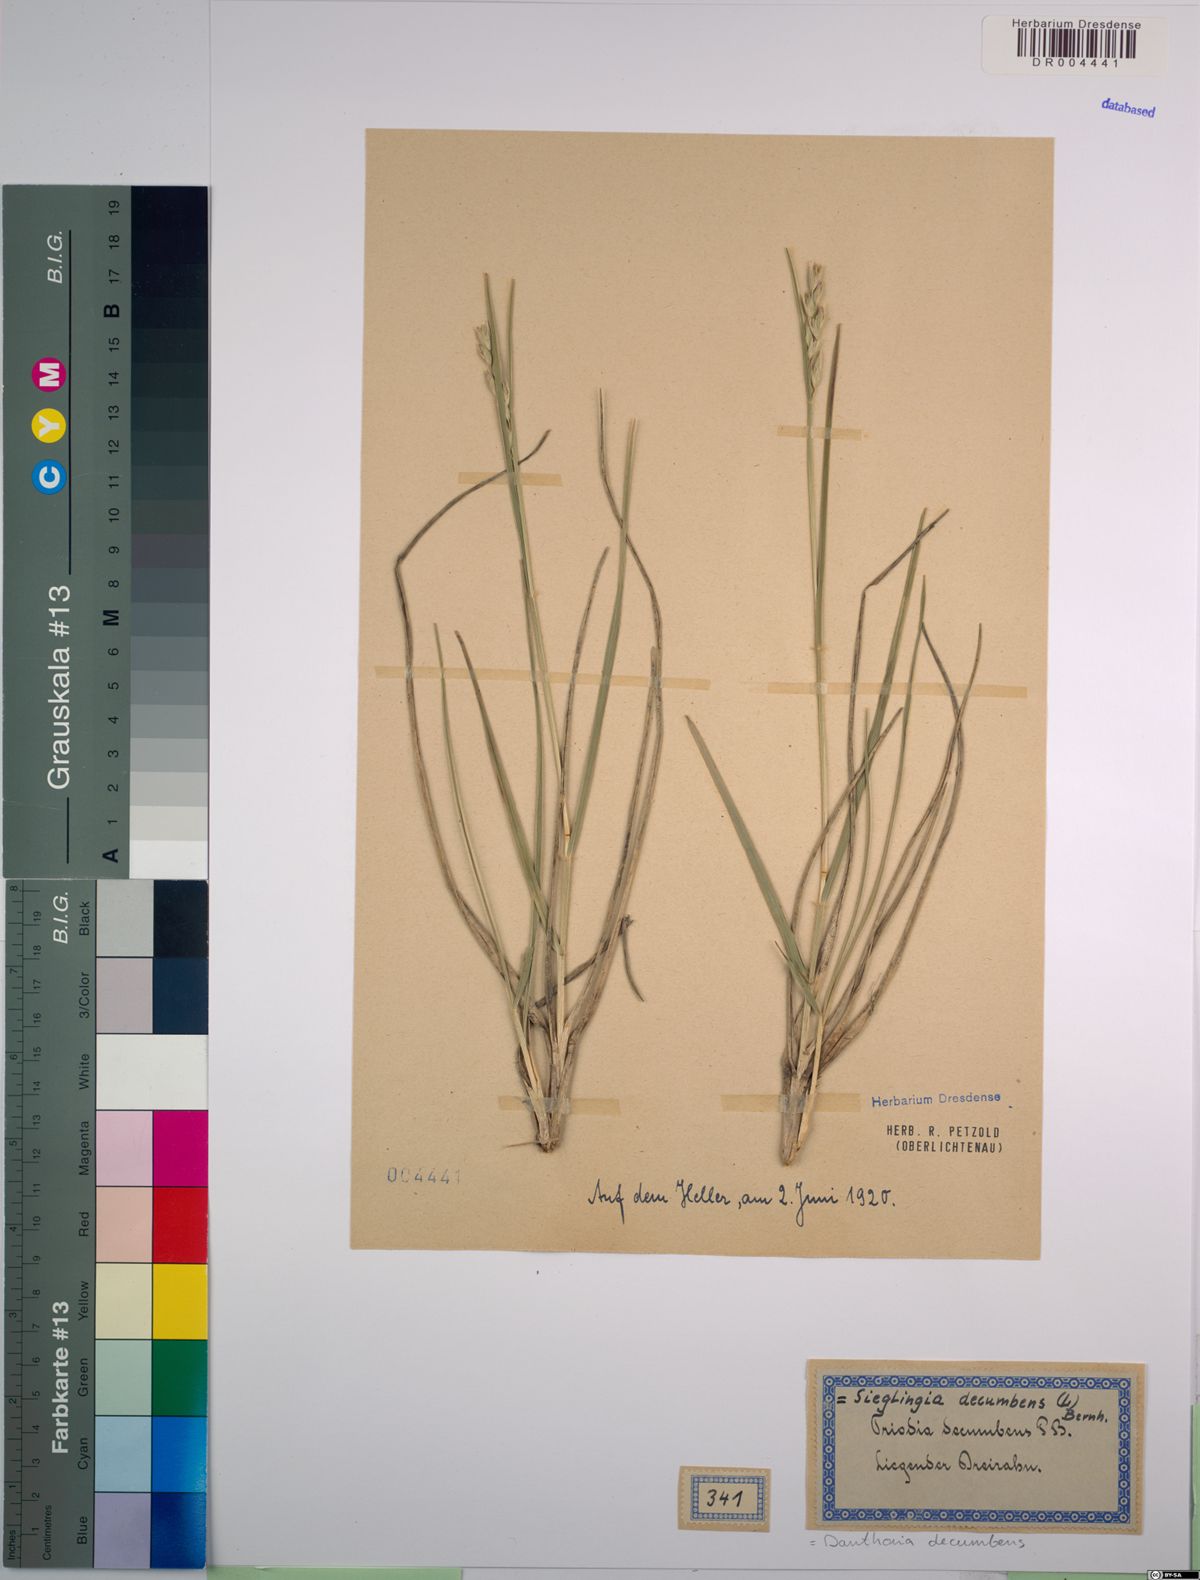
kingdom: Plantae
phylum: Tracheophyta
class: Liliopsida
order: Poales
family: Poaceae
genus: Danthonia
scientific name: Danthonia decumbens
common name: Common heathgrass
